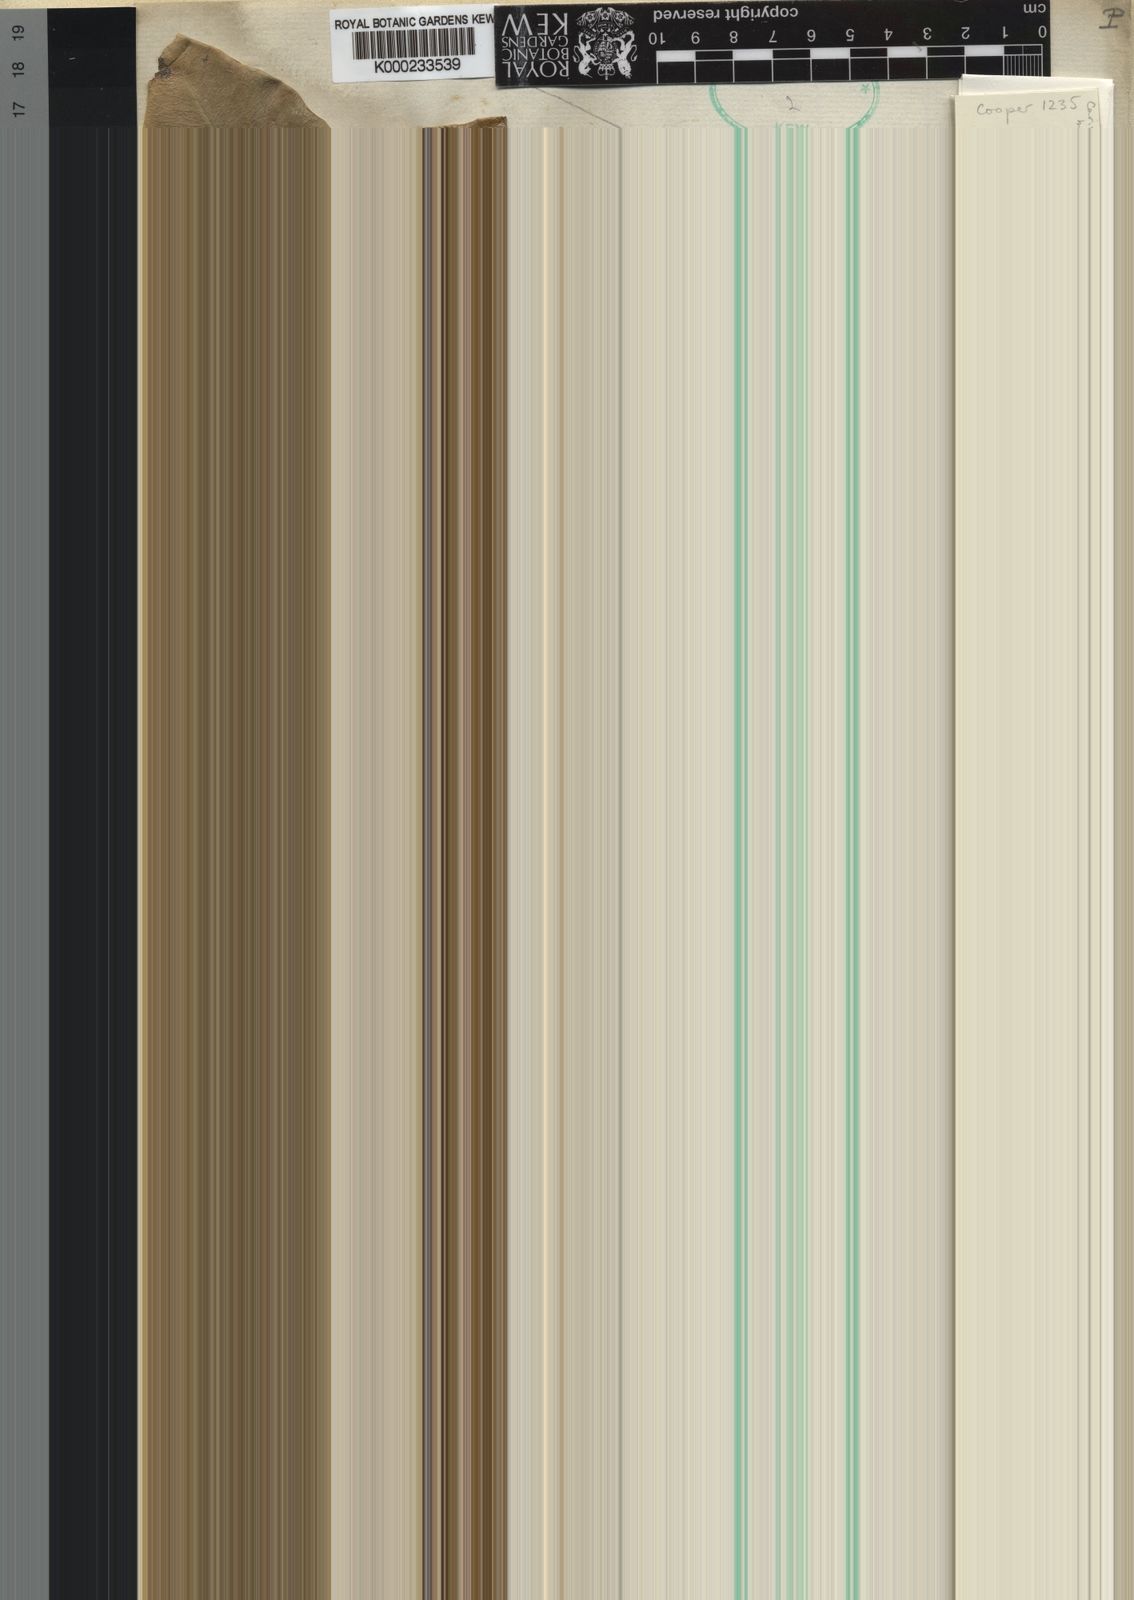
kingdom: Plantae
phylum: Tracheophyta
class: Magnoliopsida
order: Gentianales
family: Apocynaceae
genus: Carissa
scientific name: Carissa bispinosa
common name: Forest num-num
